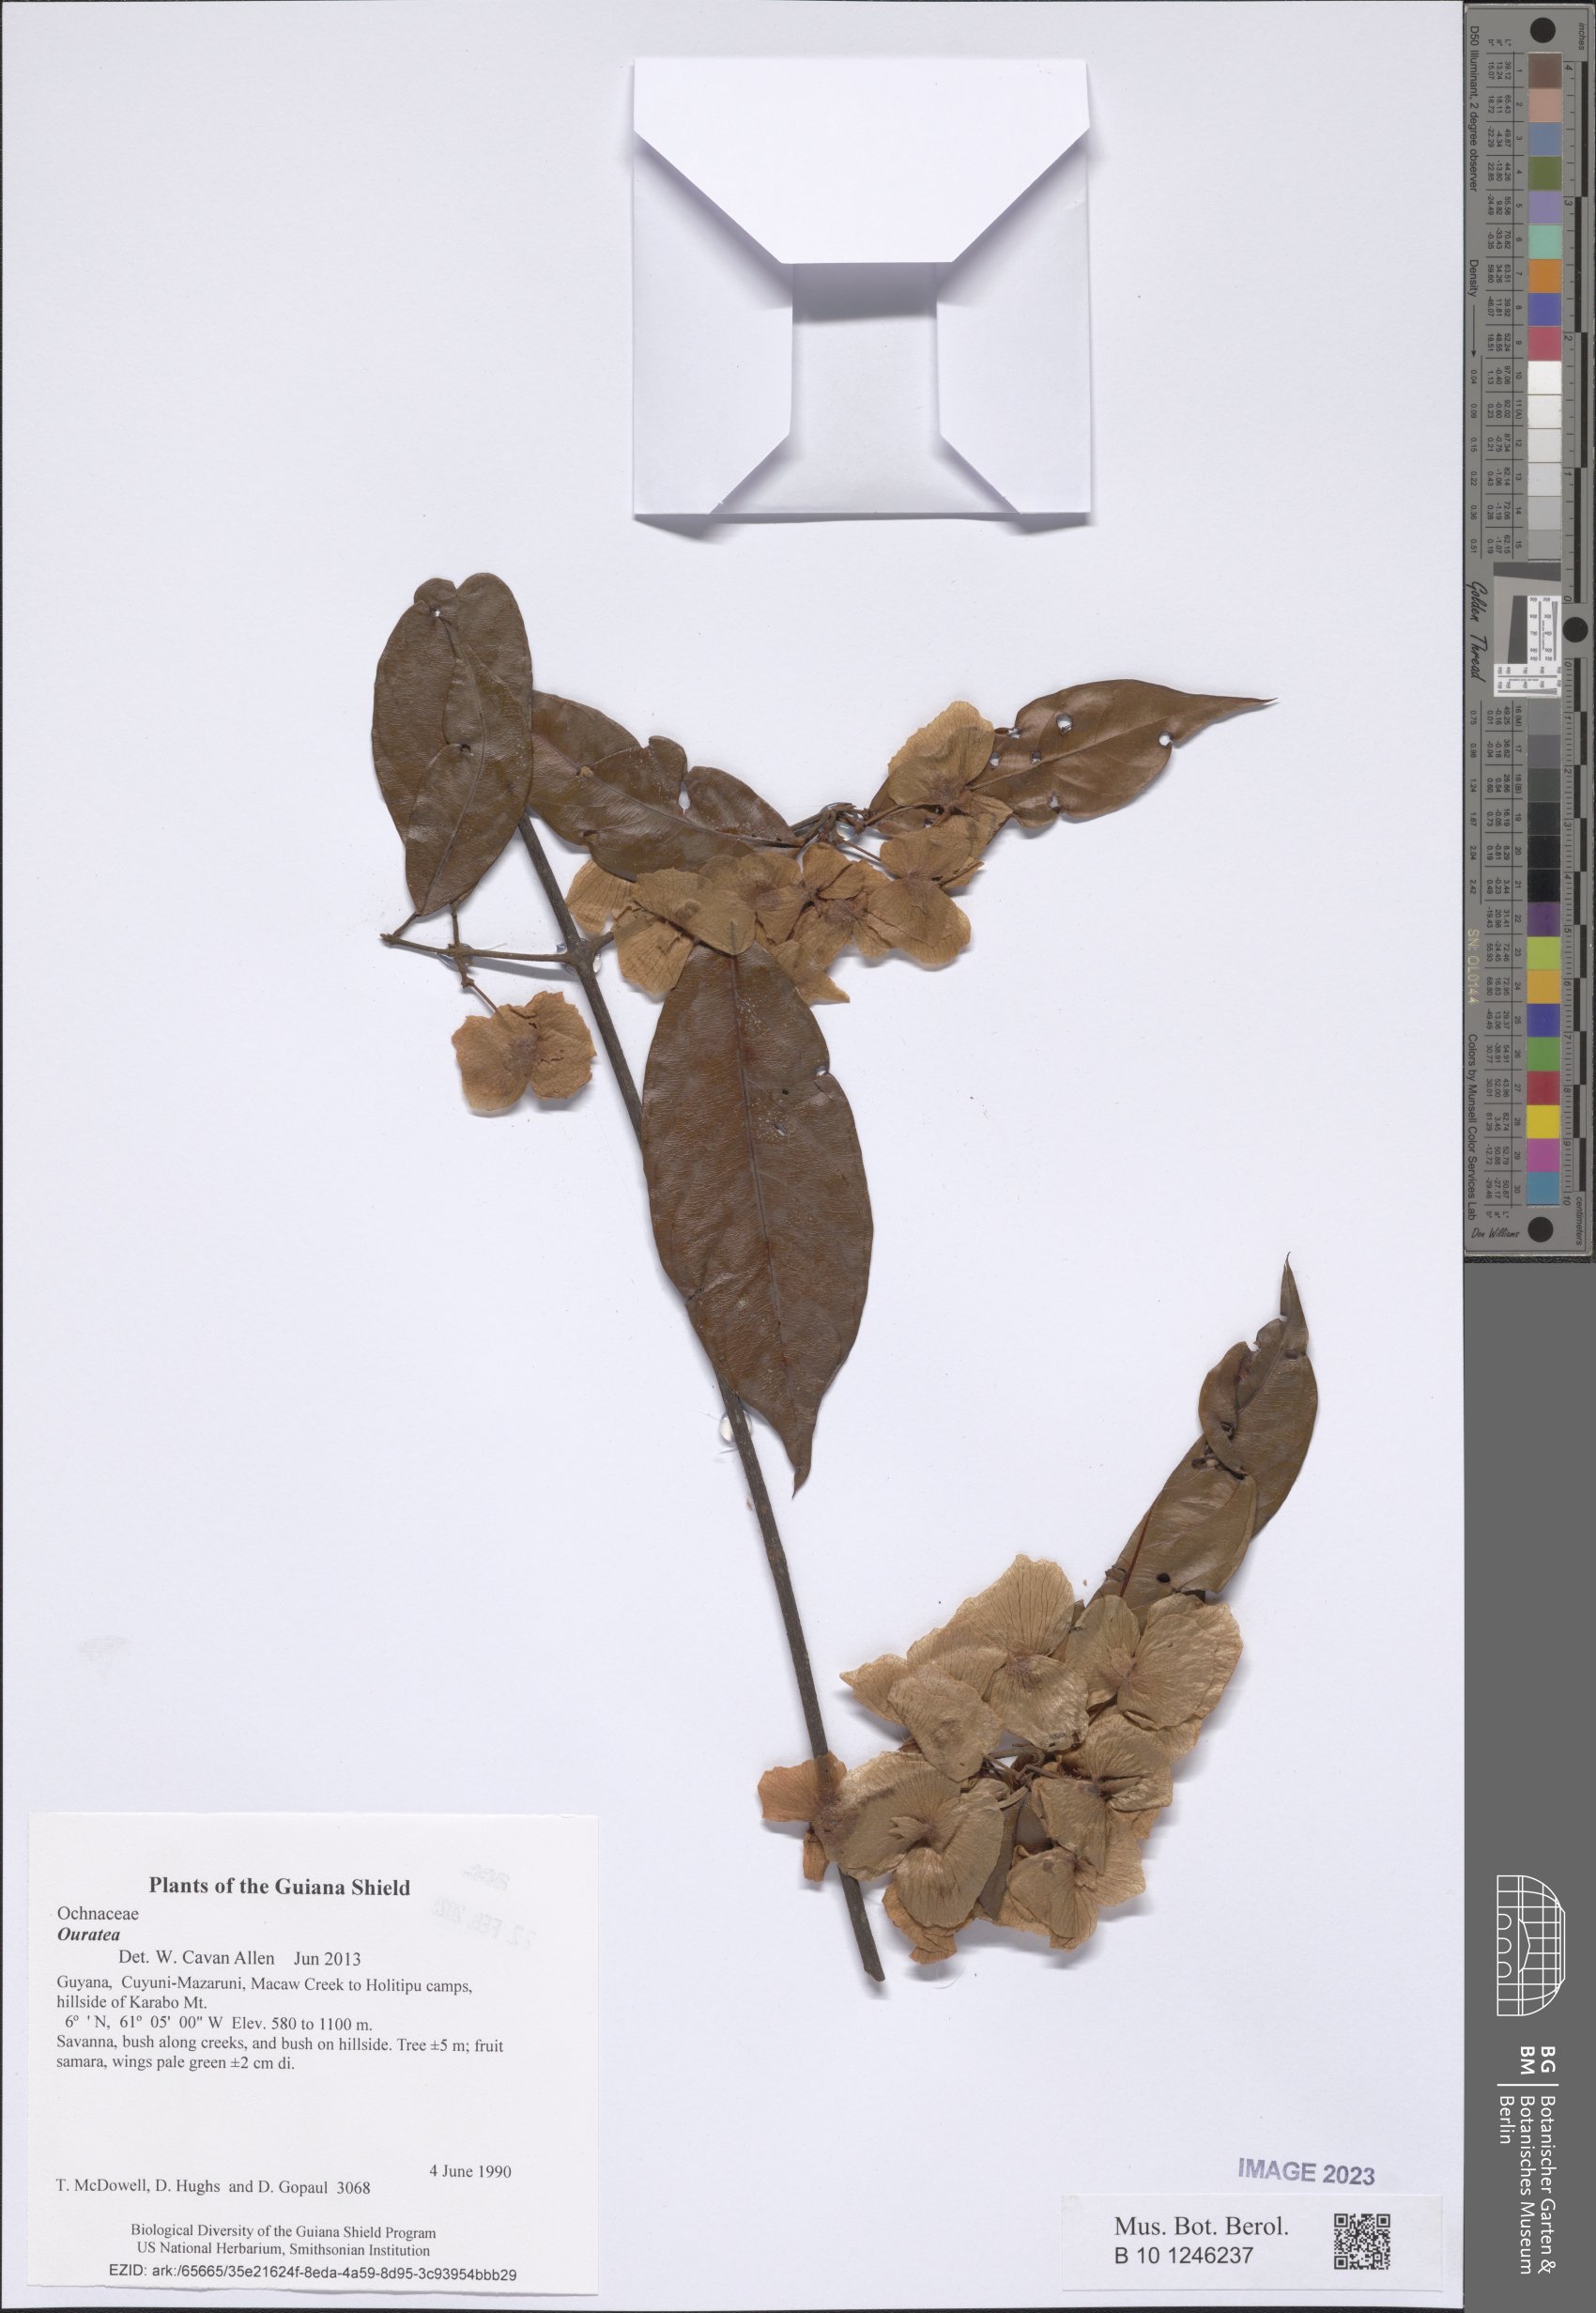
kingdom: Plantae
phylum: Tracheophyta
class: Magnoliopsida
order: Malpighiales
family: Malpighiaceae
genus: Mascagnia
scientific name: Mascagnia
